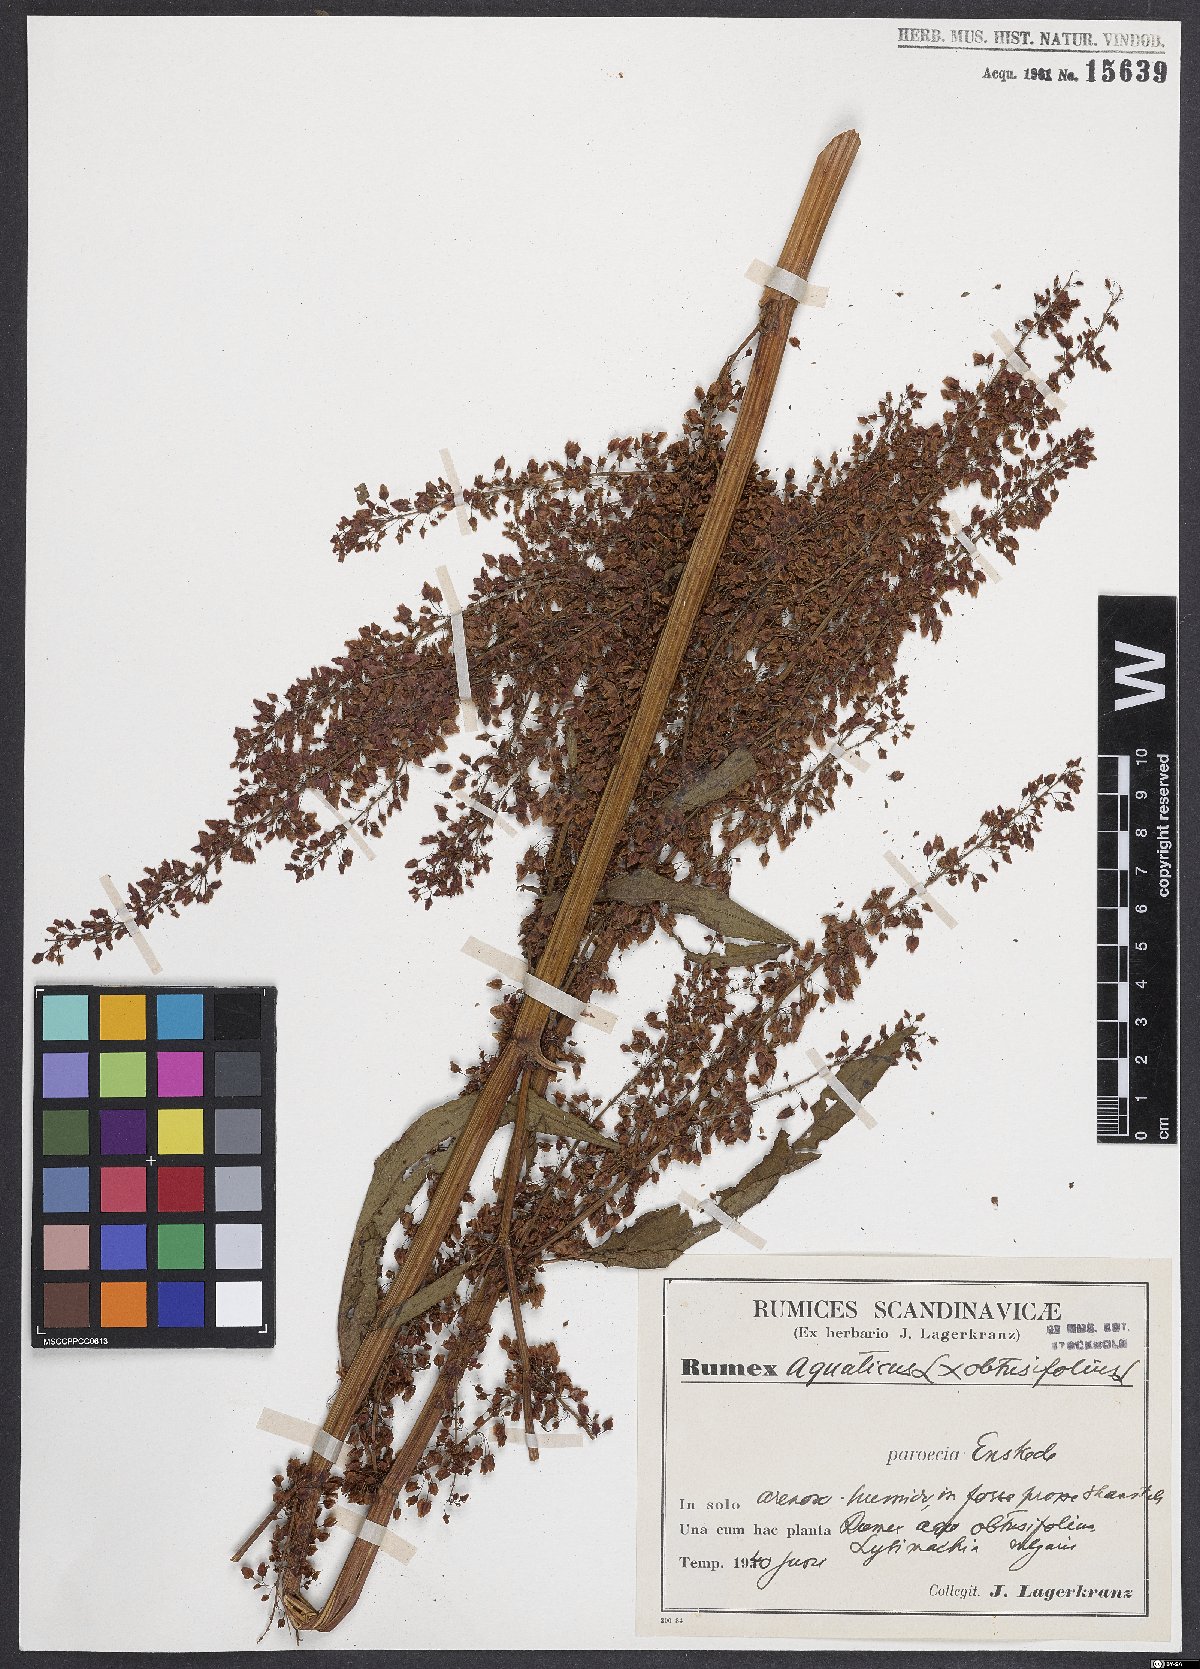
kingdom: Plantae
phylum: Tracheophyta
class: Magnoliopsida
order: Caryophyllales
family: Polygonaceae
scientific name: Polygonaceae
